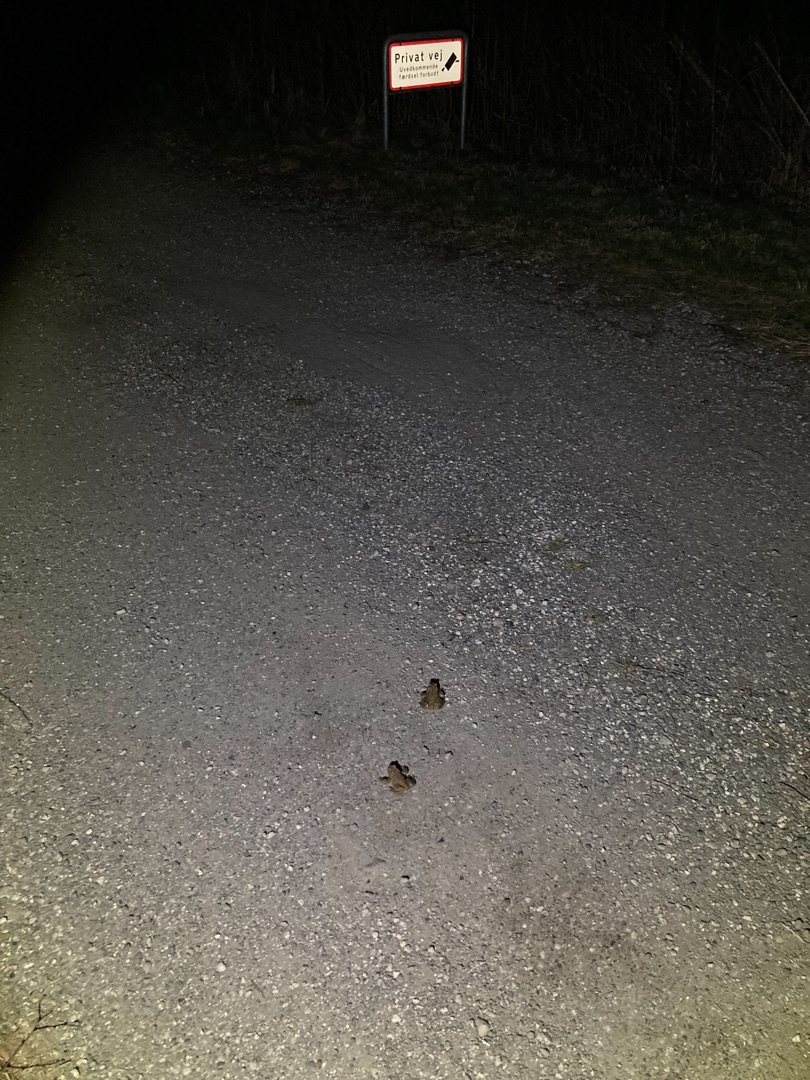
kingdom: Animalia
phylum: Chordata
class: Amphibia
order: Anura
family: Bufonidae
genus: Bufo
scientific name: Bufo bufo
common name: Skrubtudse
